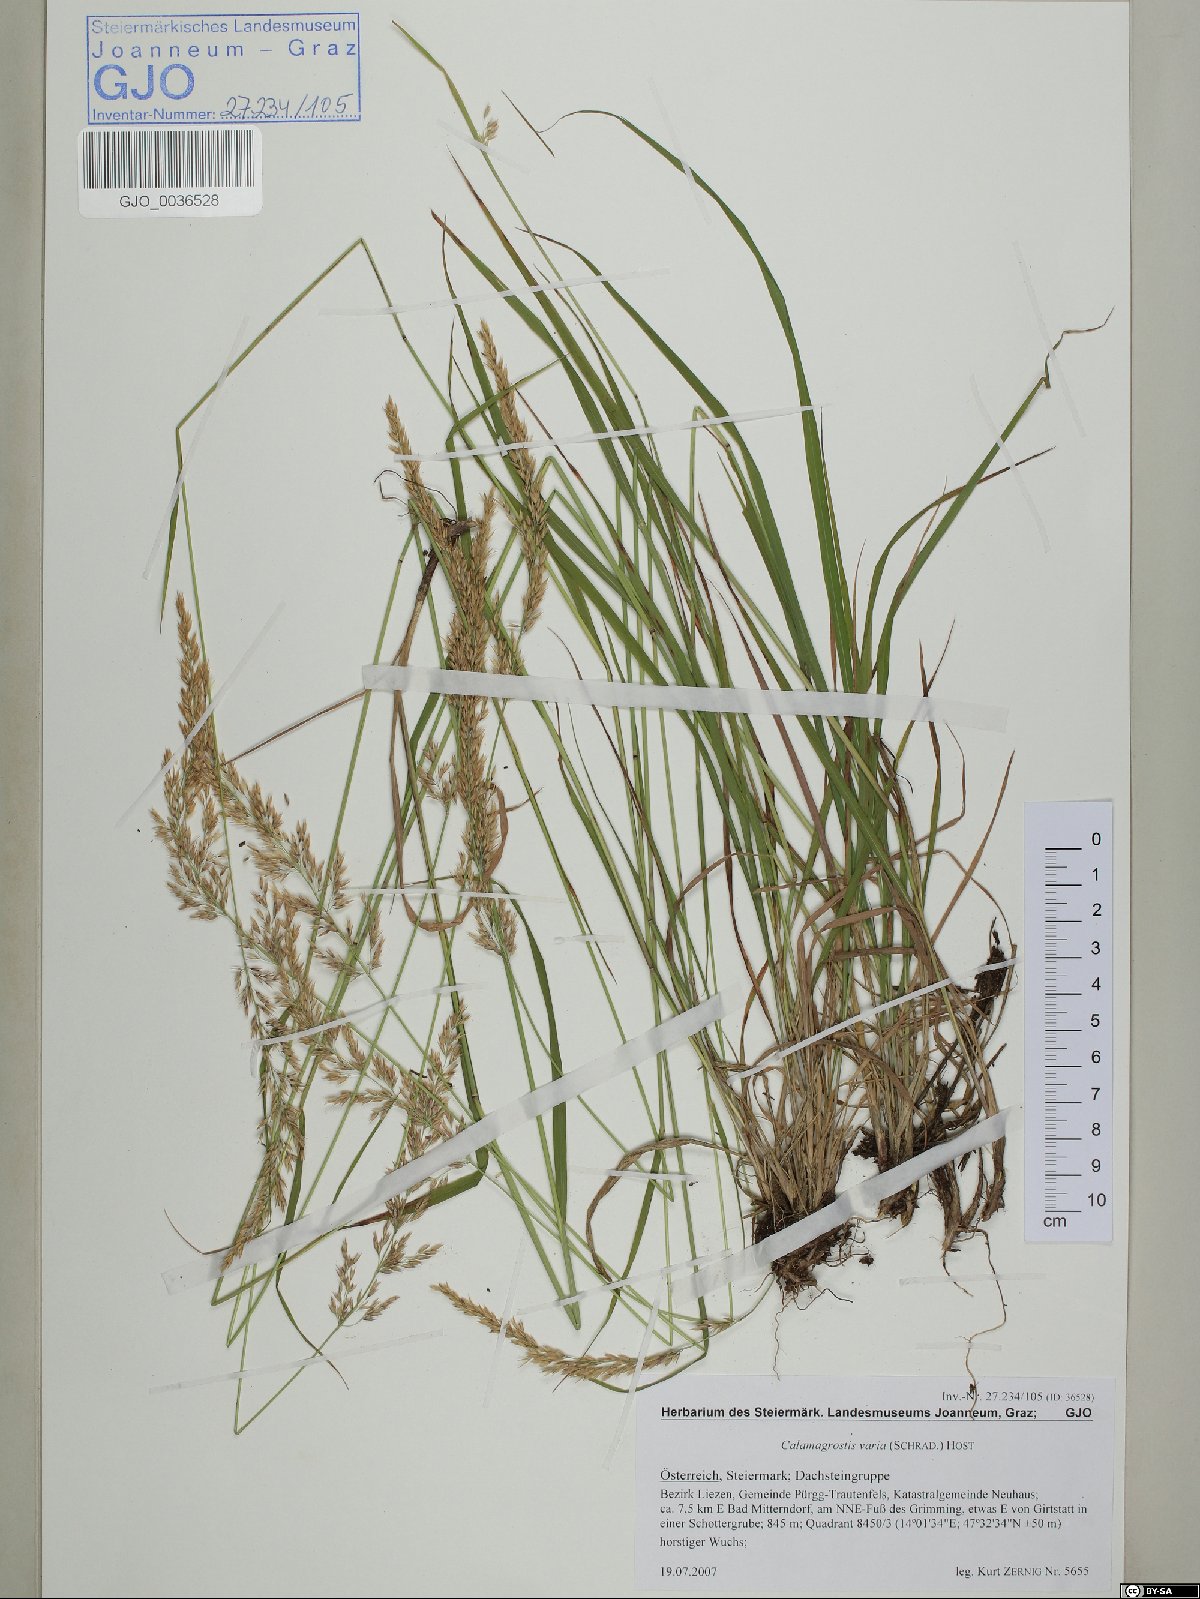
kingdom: Plantae
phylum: Tracheophyta
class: Liliopsida
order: Poales
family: Poaceae
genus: Calamagrostis
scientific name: Calamagrostis varia
